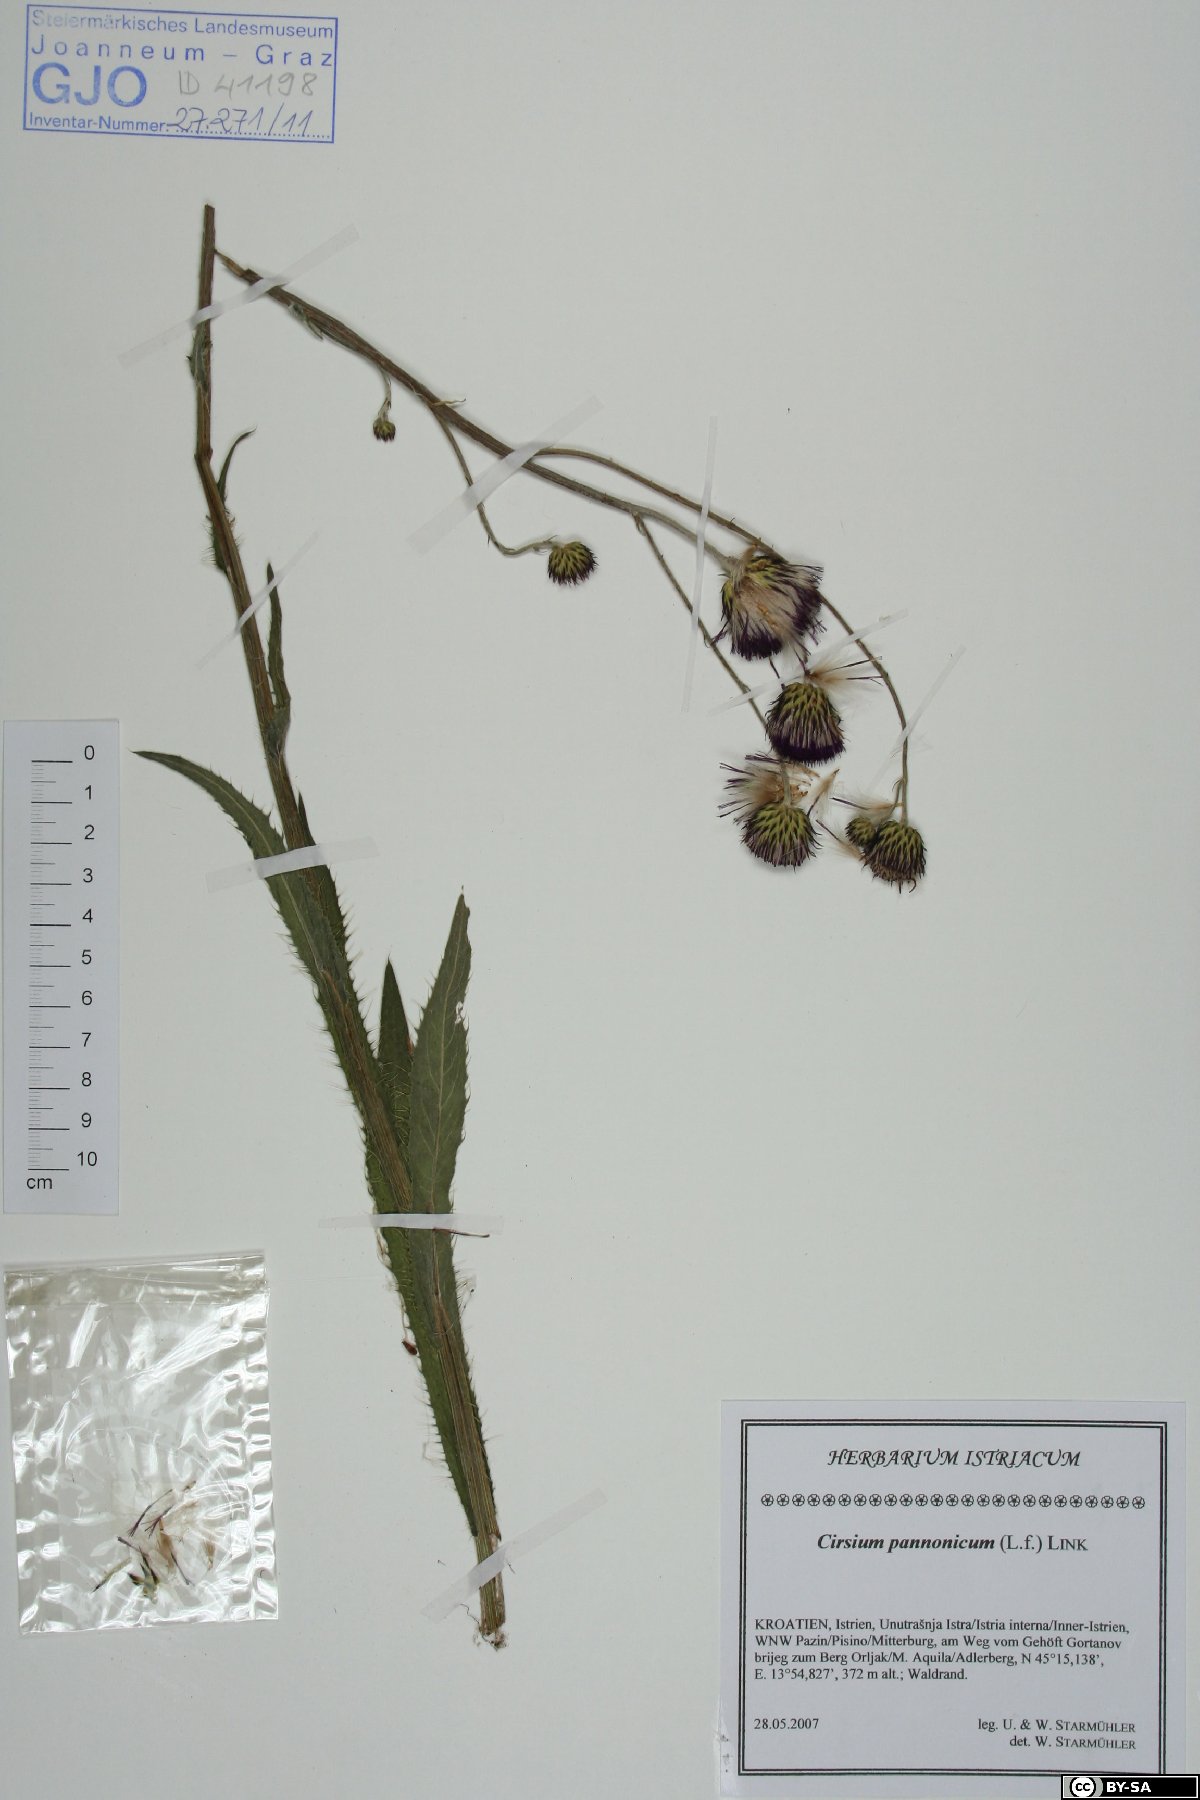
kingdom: Plantae
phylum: Tracheophyta
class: Magnoliopsida
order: Asterales
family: Asteraceae
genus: Cirsium
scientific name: Cirsium pannonicum
